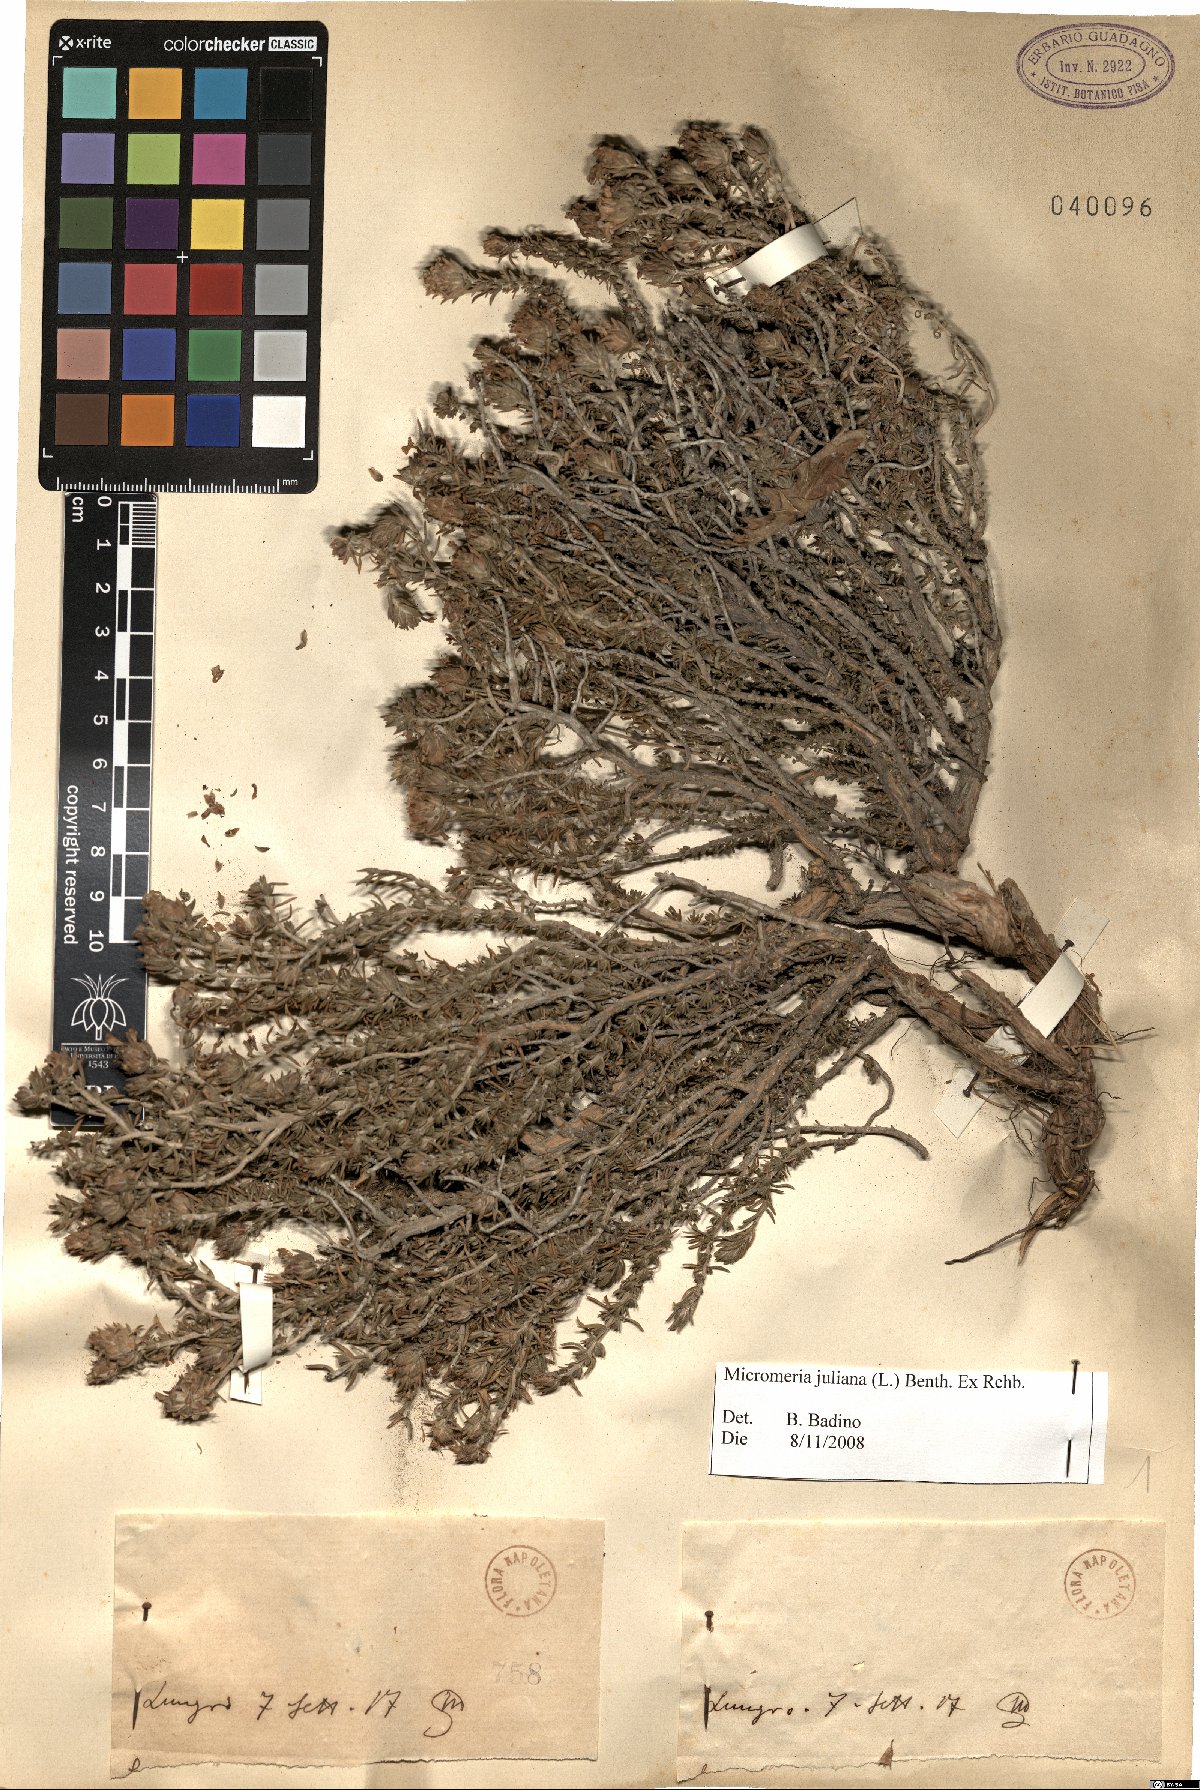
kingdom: Plantae
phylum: Tracheophyta
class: Magnoliopsida
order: Lamiales
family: Lamiaceae
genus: Micromeria
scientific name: Micromeria juliana
